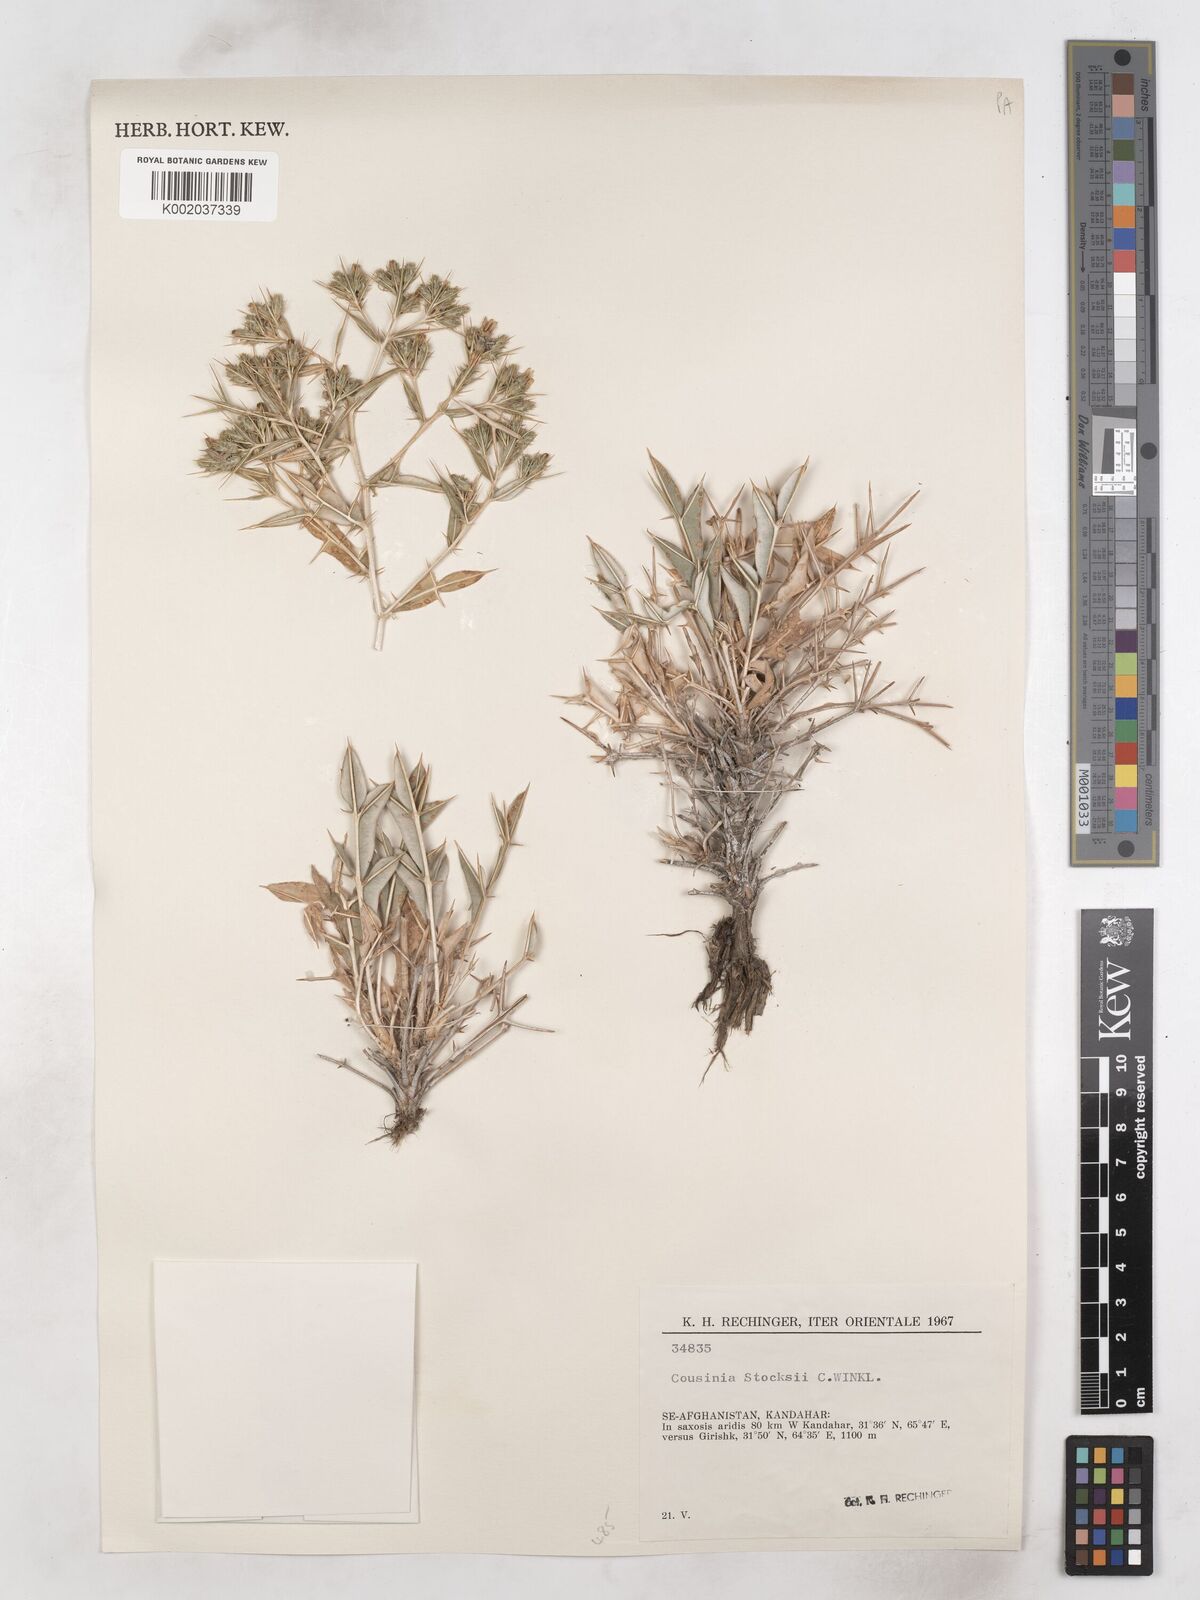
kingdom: Plantae
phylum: Tracheophyta
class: Magnoliopsida
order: Asterales
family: Asteraceae
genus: Cousinia
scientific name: Cousinia stocksii
